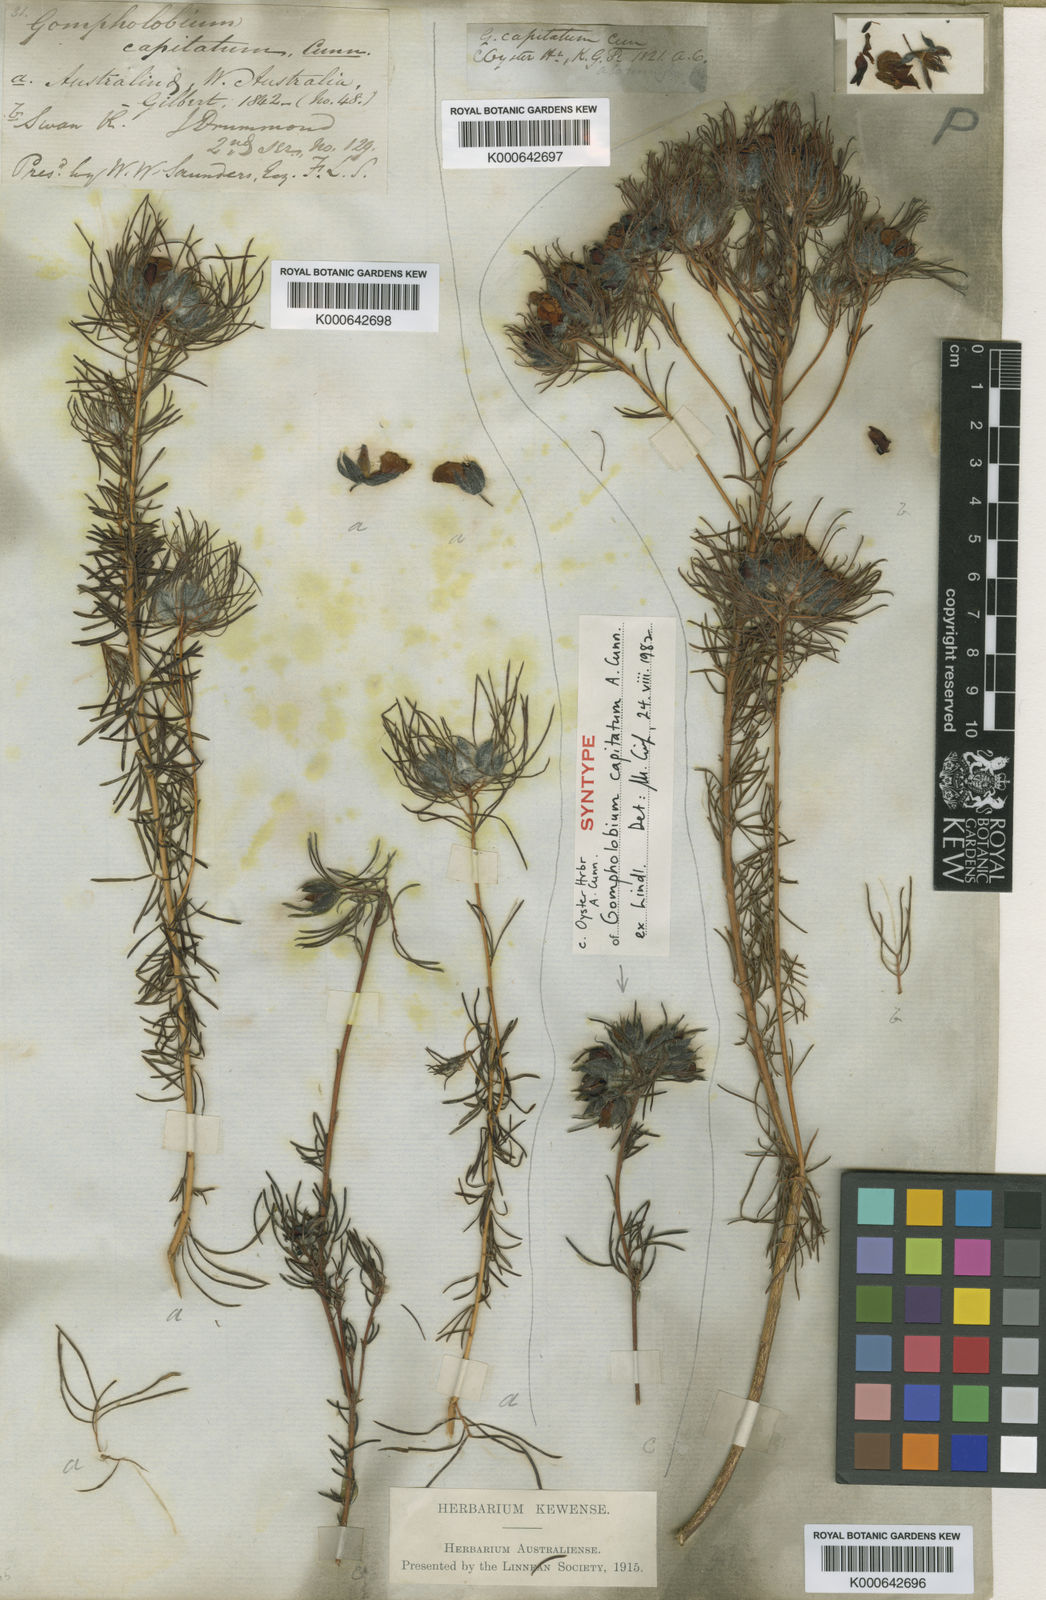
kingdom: Plantae
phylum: Tracheophyta
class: Magnoliopsida
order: Fabales
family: Fabaceae
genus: Gompholobium
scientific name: Gompholobium
